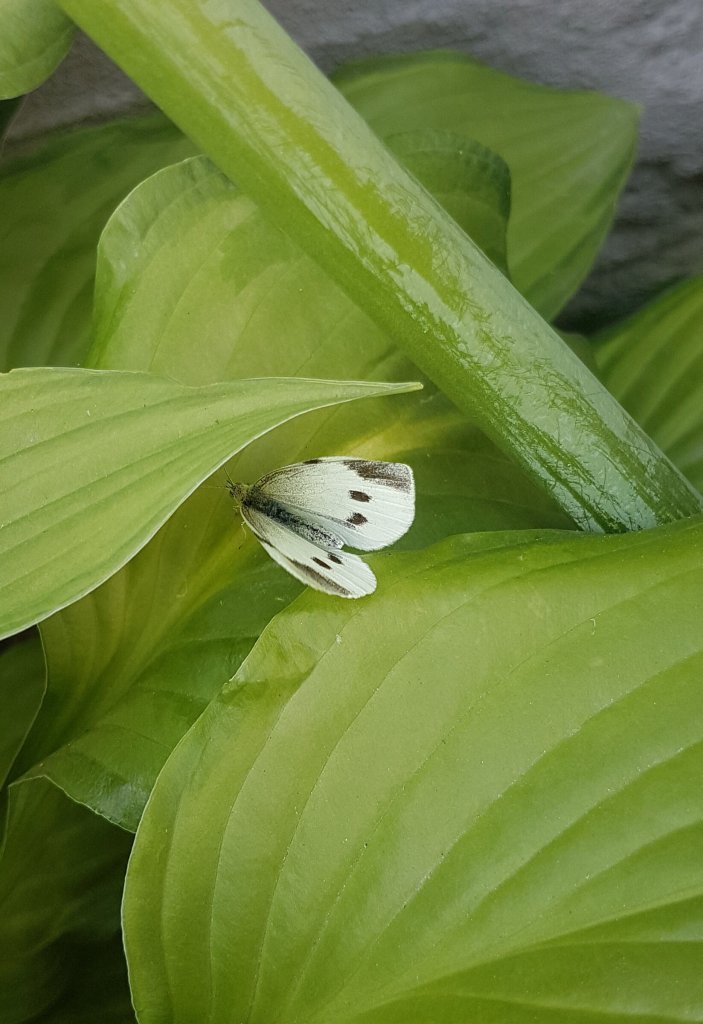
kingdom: Animalia
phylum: Arthropoda
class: Insecta
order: Lepidoptera
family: Pieridae
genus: Pieris
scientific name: Pieris rapae
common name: Cabbage White
